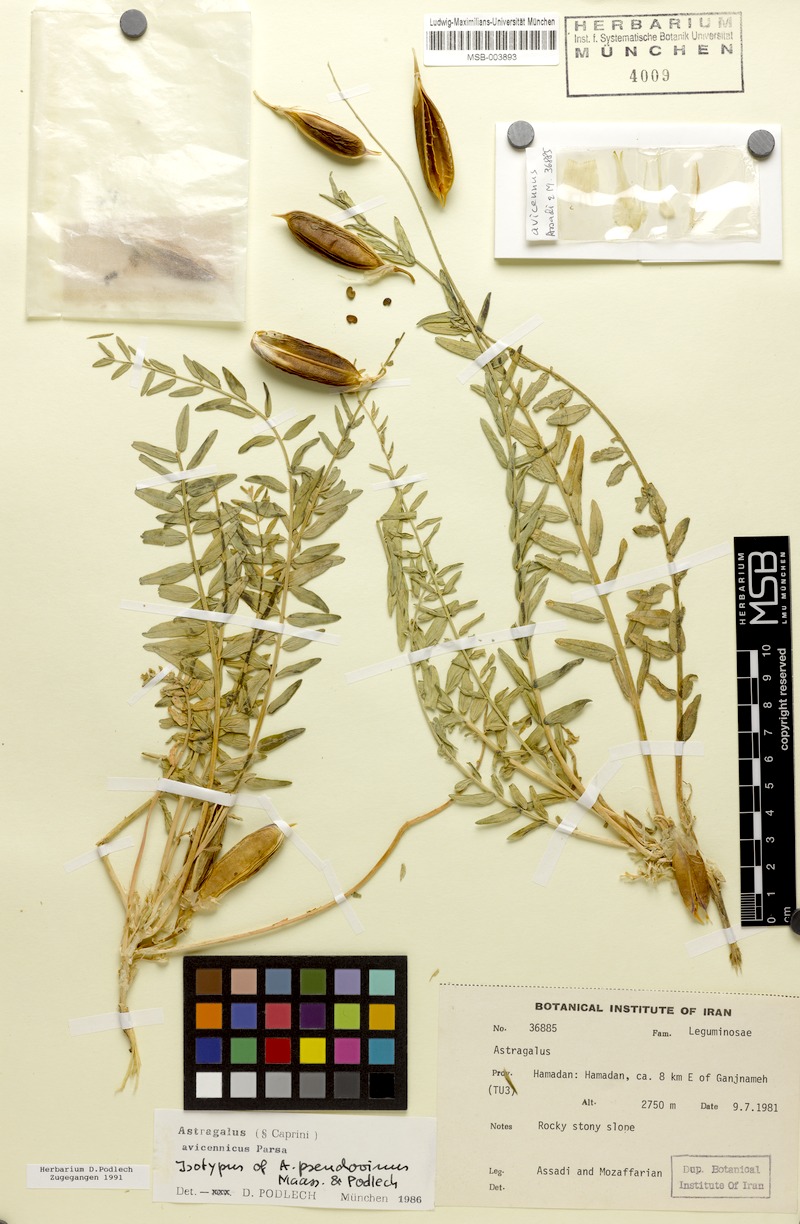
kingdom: Plantae
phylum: Tracheophyta
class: Magnoliopsida
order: Fabales
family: Fabaceae
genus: Astragalus
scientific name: Astragalus avicennicus
